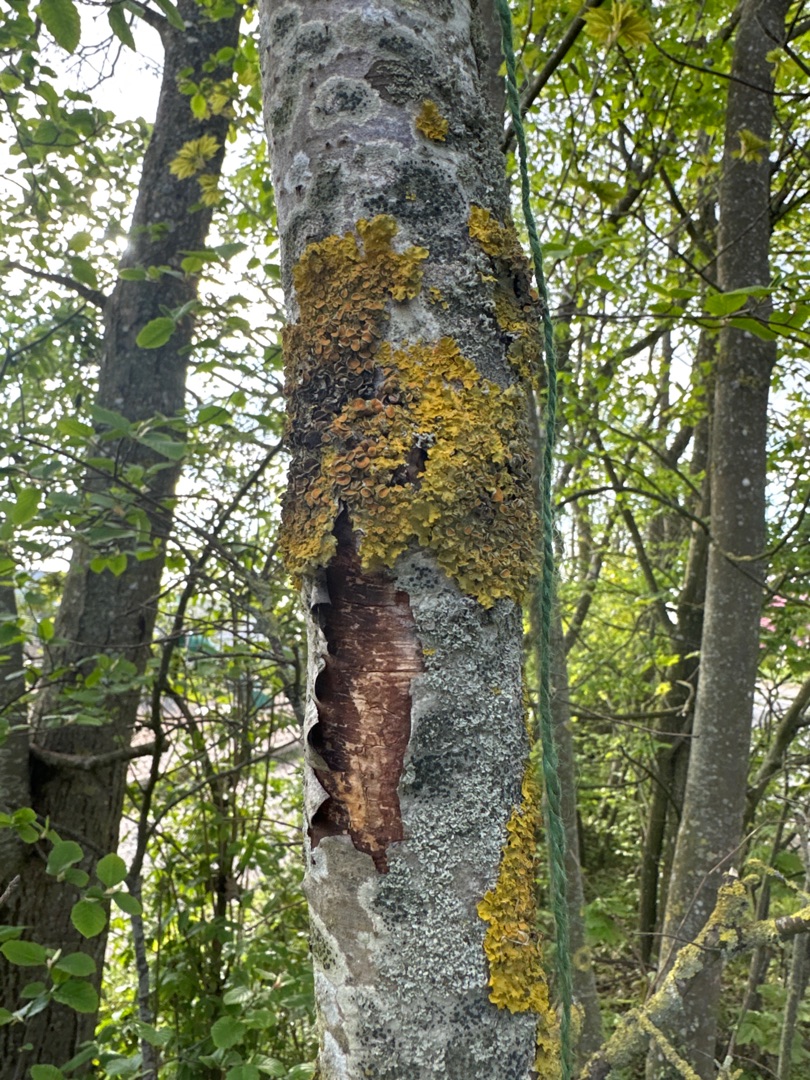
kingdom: Fungi
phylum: Ascomycota
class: Lecanoromycetes
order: Teloschistales
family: Teloschistaceae
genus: Xanthoria
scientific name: Xanthoria parietina
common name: Almindelig væggelav
